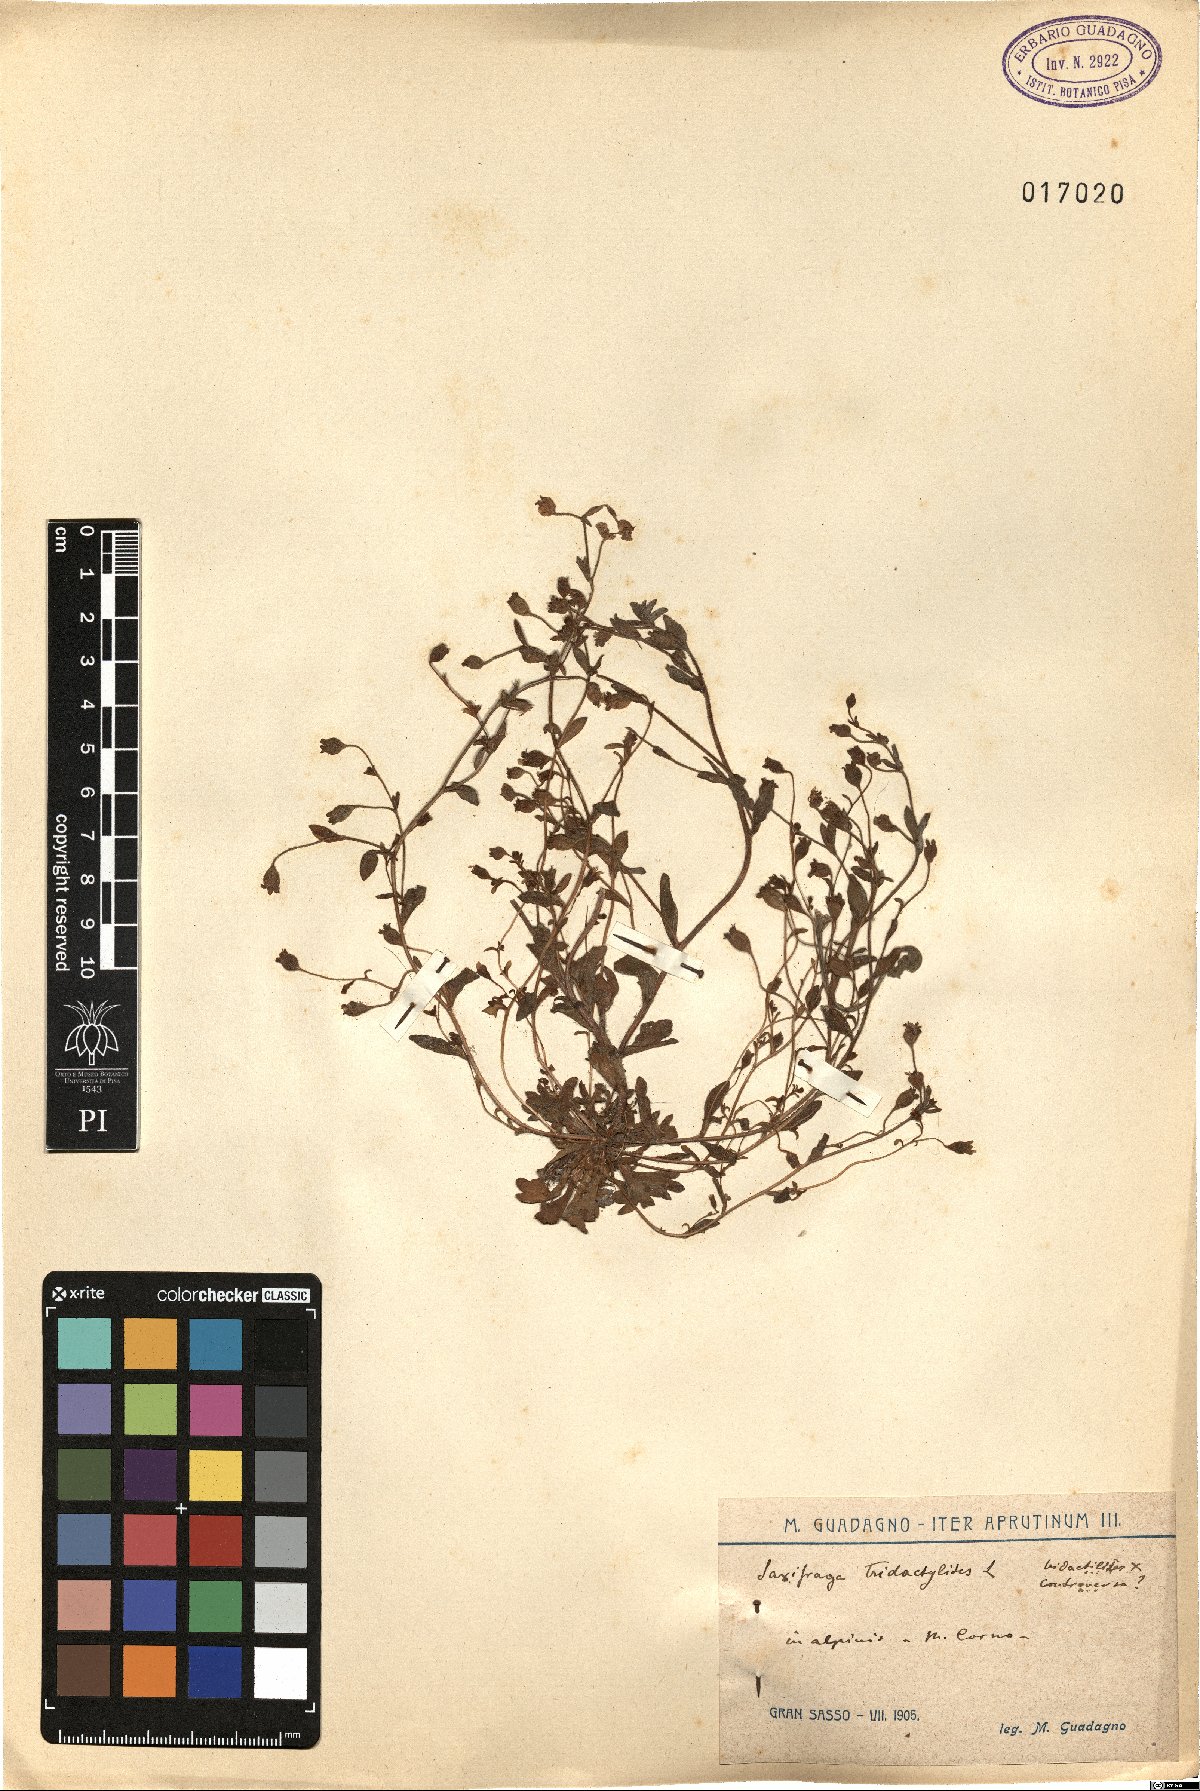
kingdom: Plantae
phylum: Tracheophyta
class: Magnoliopsida
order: Saxifragales
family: Saxifragaceae
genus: Saxifraga
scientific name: Saxifraga tridactylites
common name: Rue-leaved saxifrage
